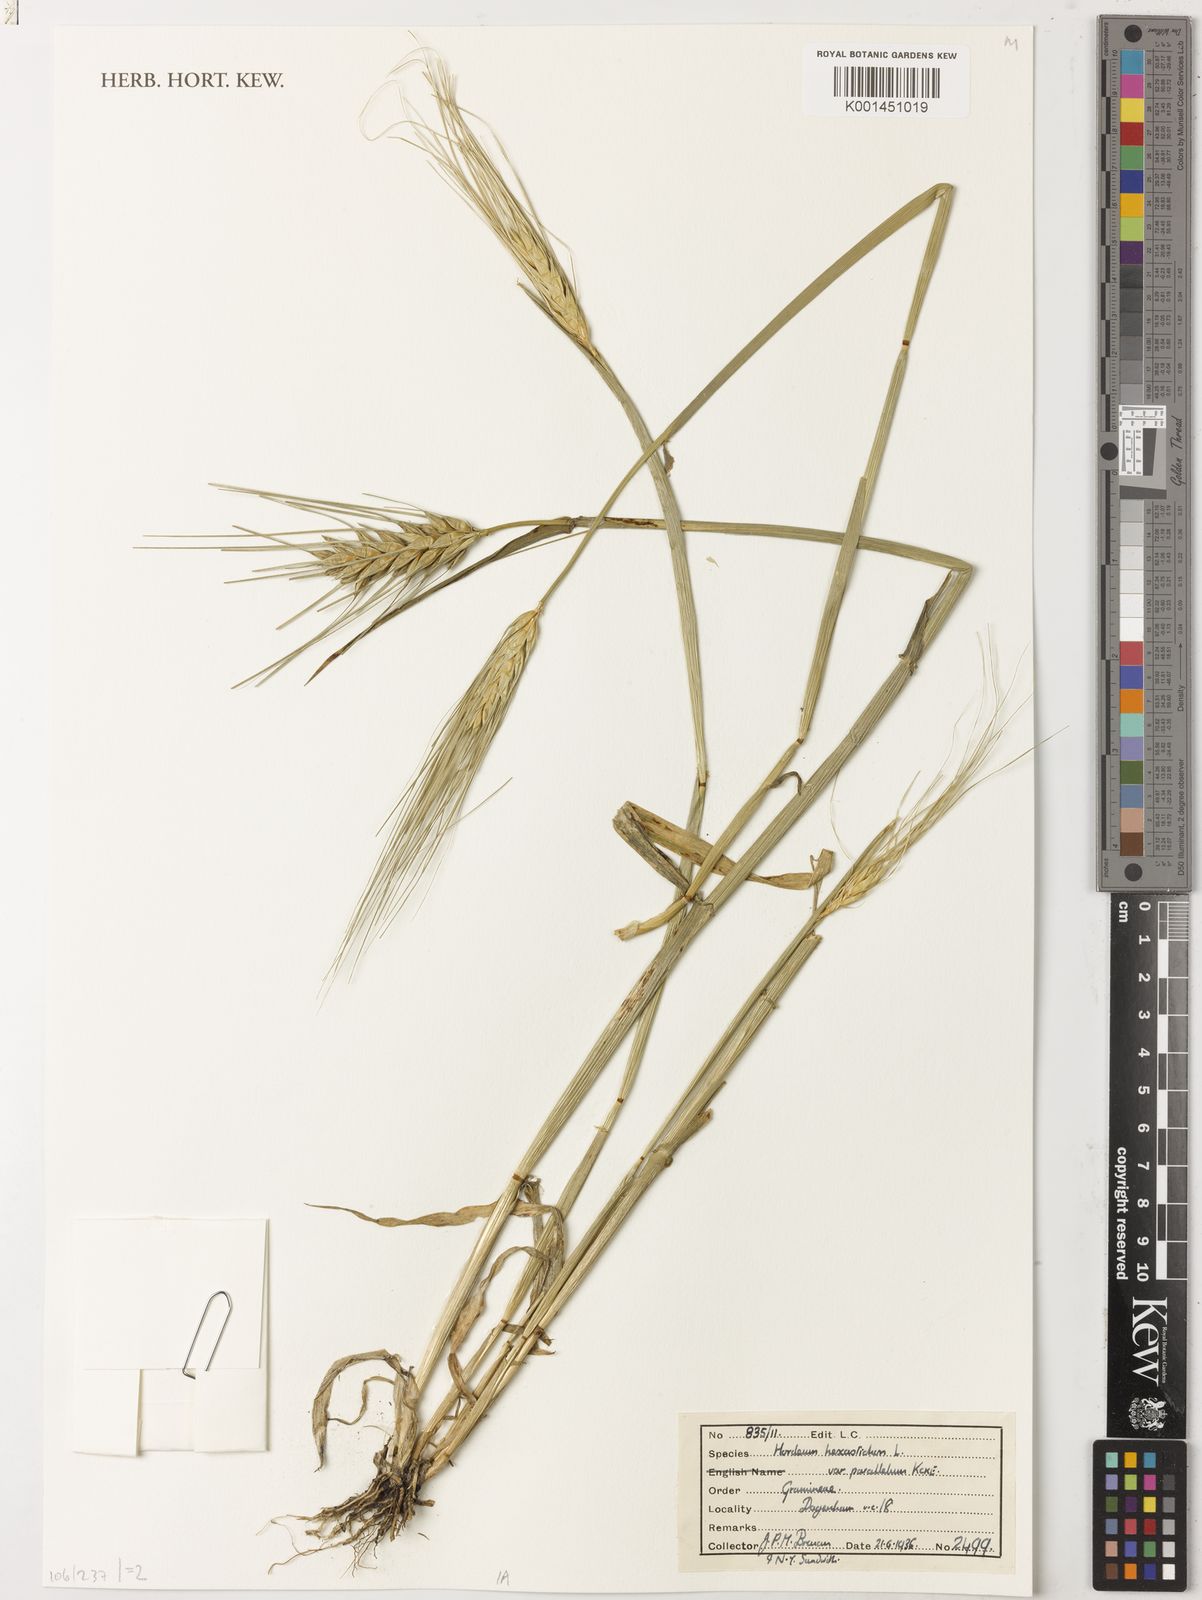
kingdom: Plantae
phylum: Tracheophyta
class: Liliopsida
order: Poales
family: Poaceae
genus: Hordeum
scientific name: Hordeum vulgare
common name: Common barley
